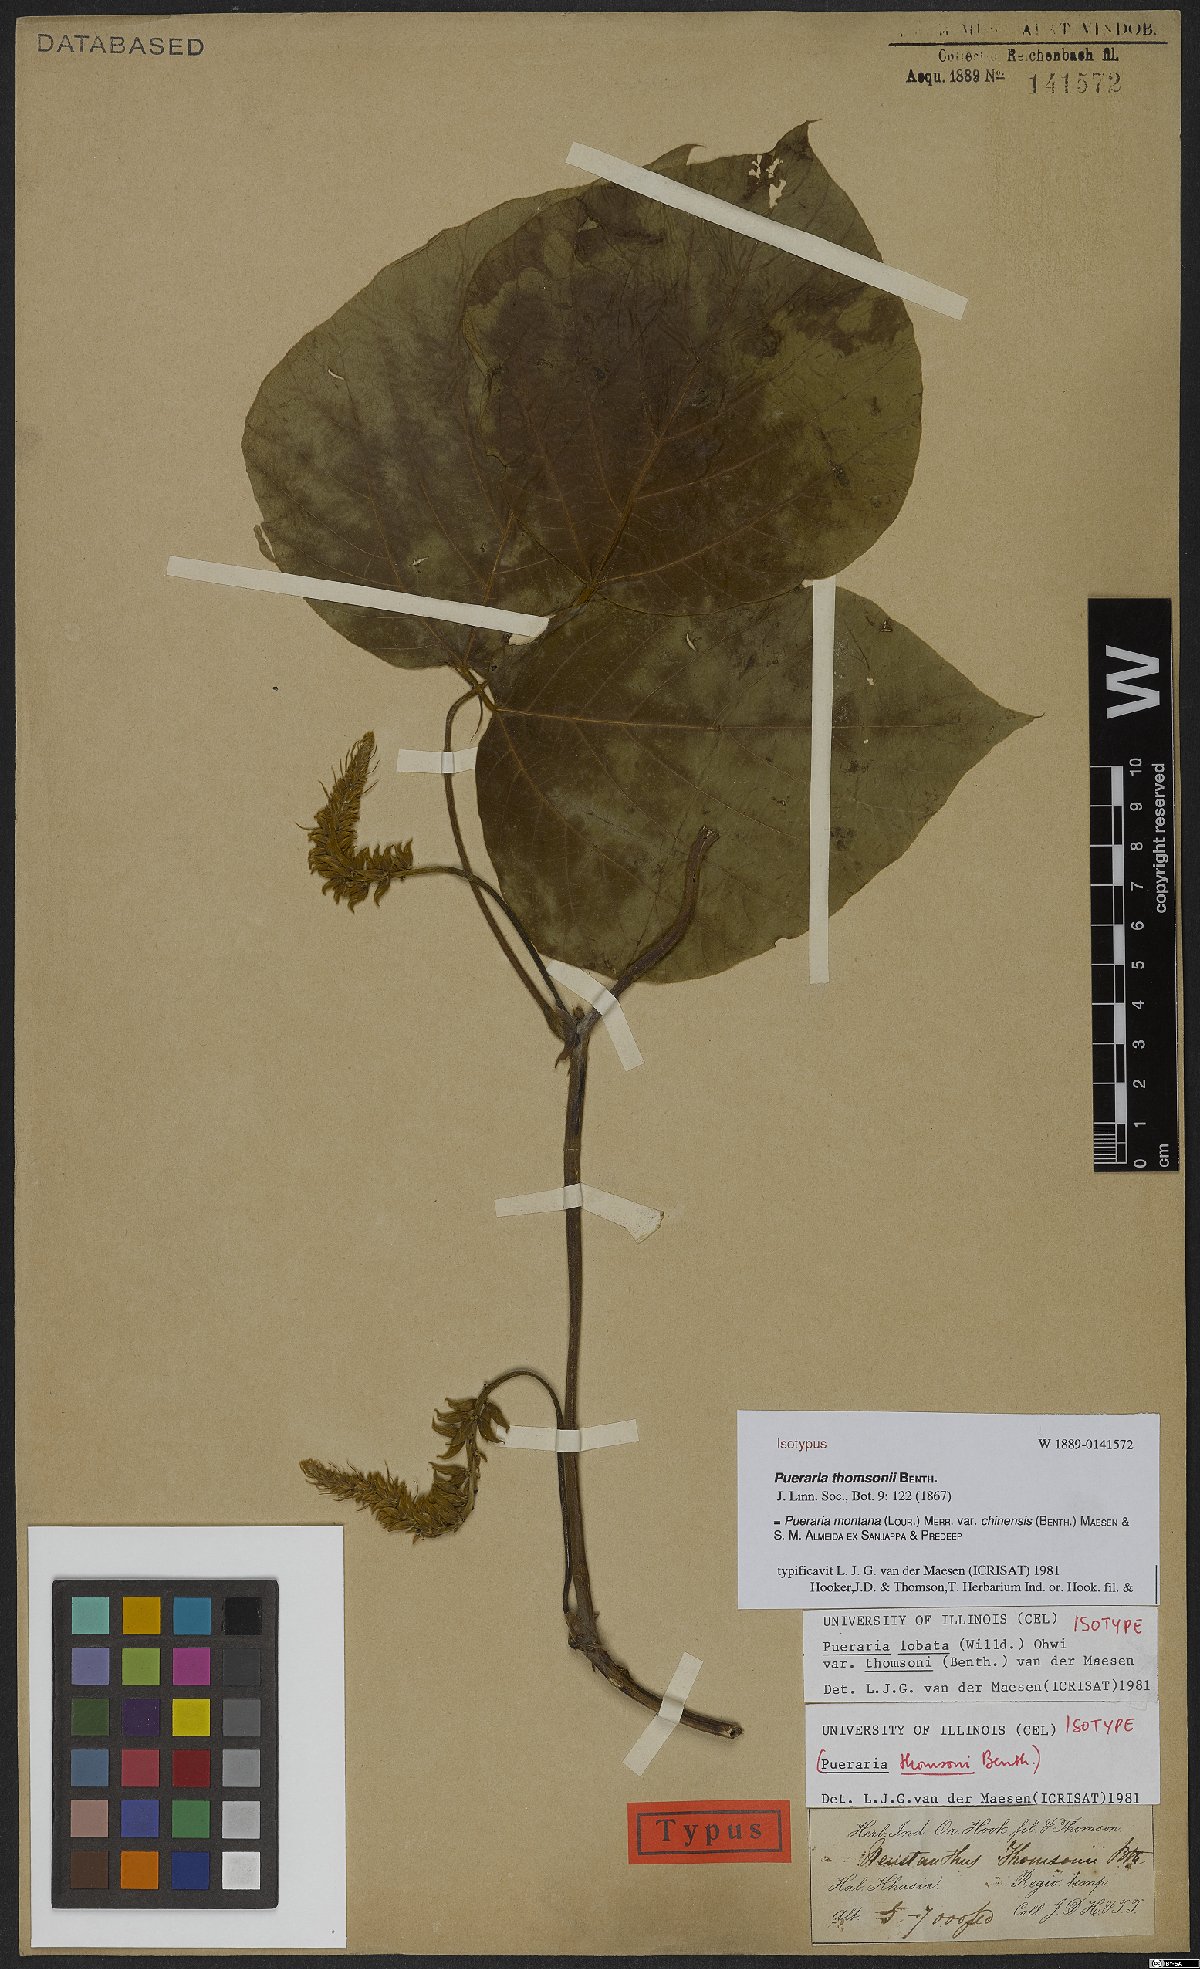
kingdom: Plantae
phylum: Tracheophyta
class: Magnoliopsida
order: Fabales
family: Fabaceae
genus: Pueraria
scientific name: Pueraria montana
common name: Kudzu
